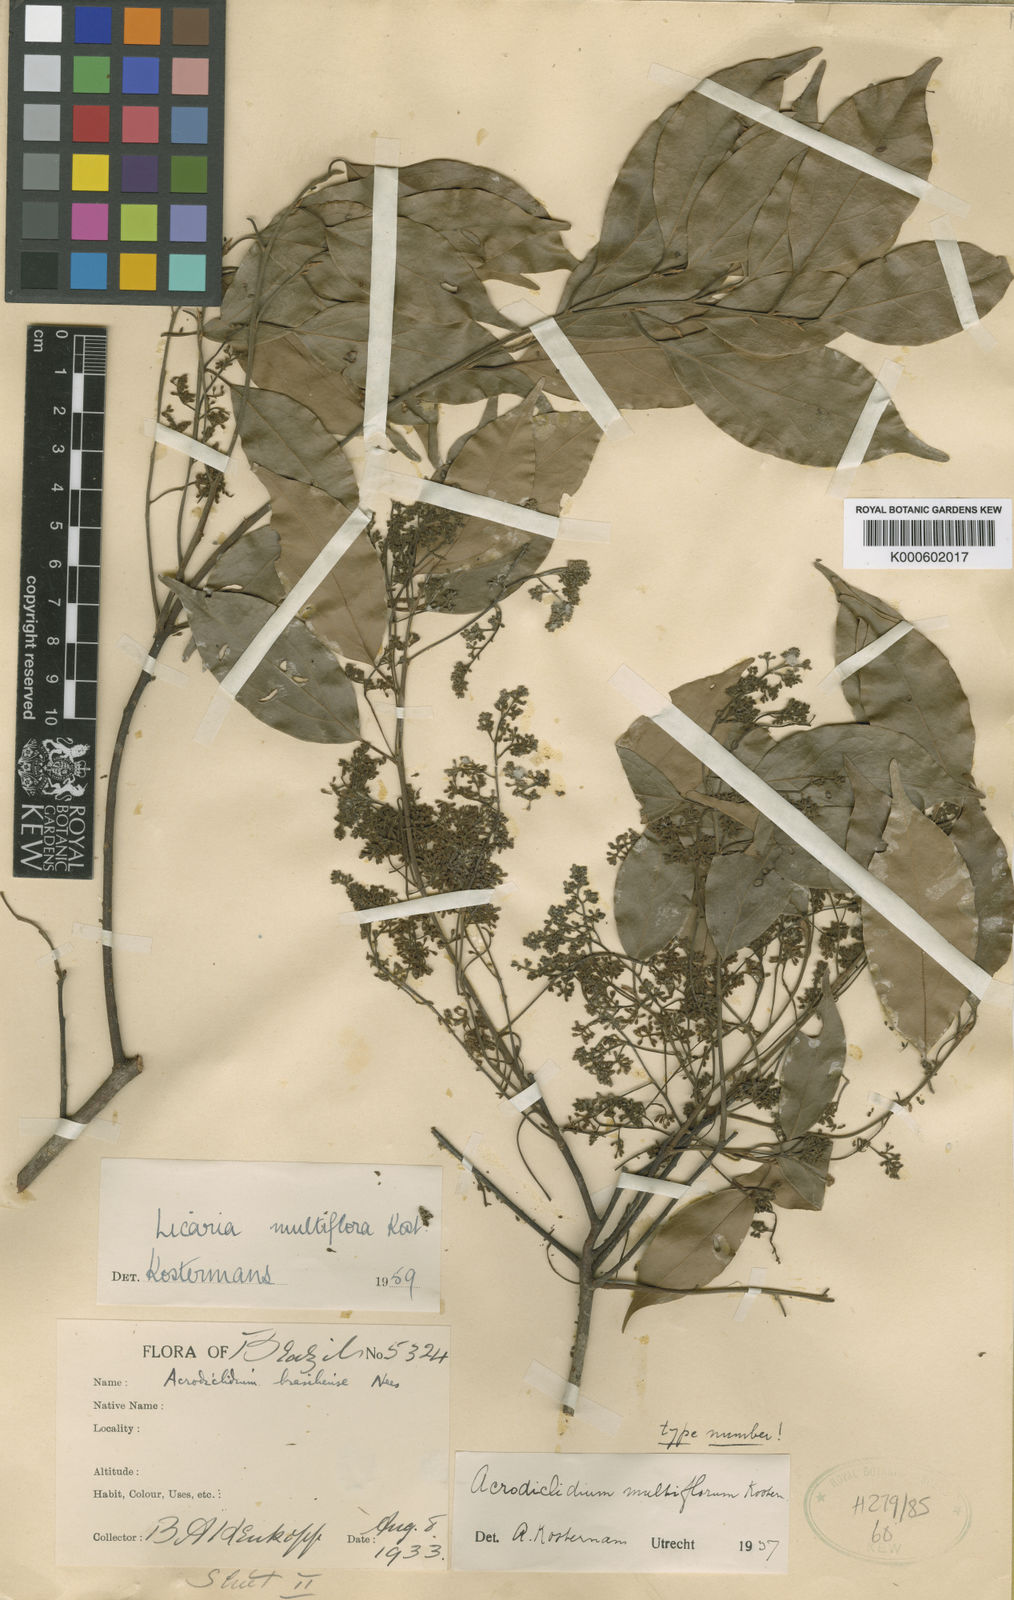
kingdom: Plantae
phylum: Tracheophyta
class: Magnoliopsida
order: Laurales
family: Lauraceae
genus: Licaria
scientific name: Licaria multiflora
